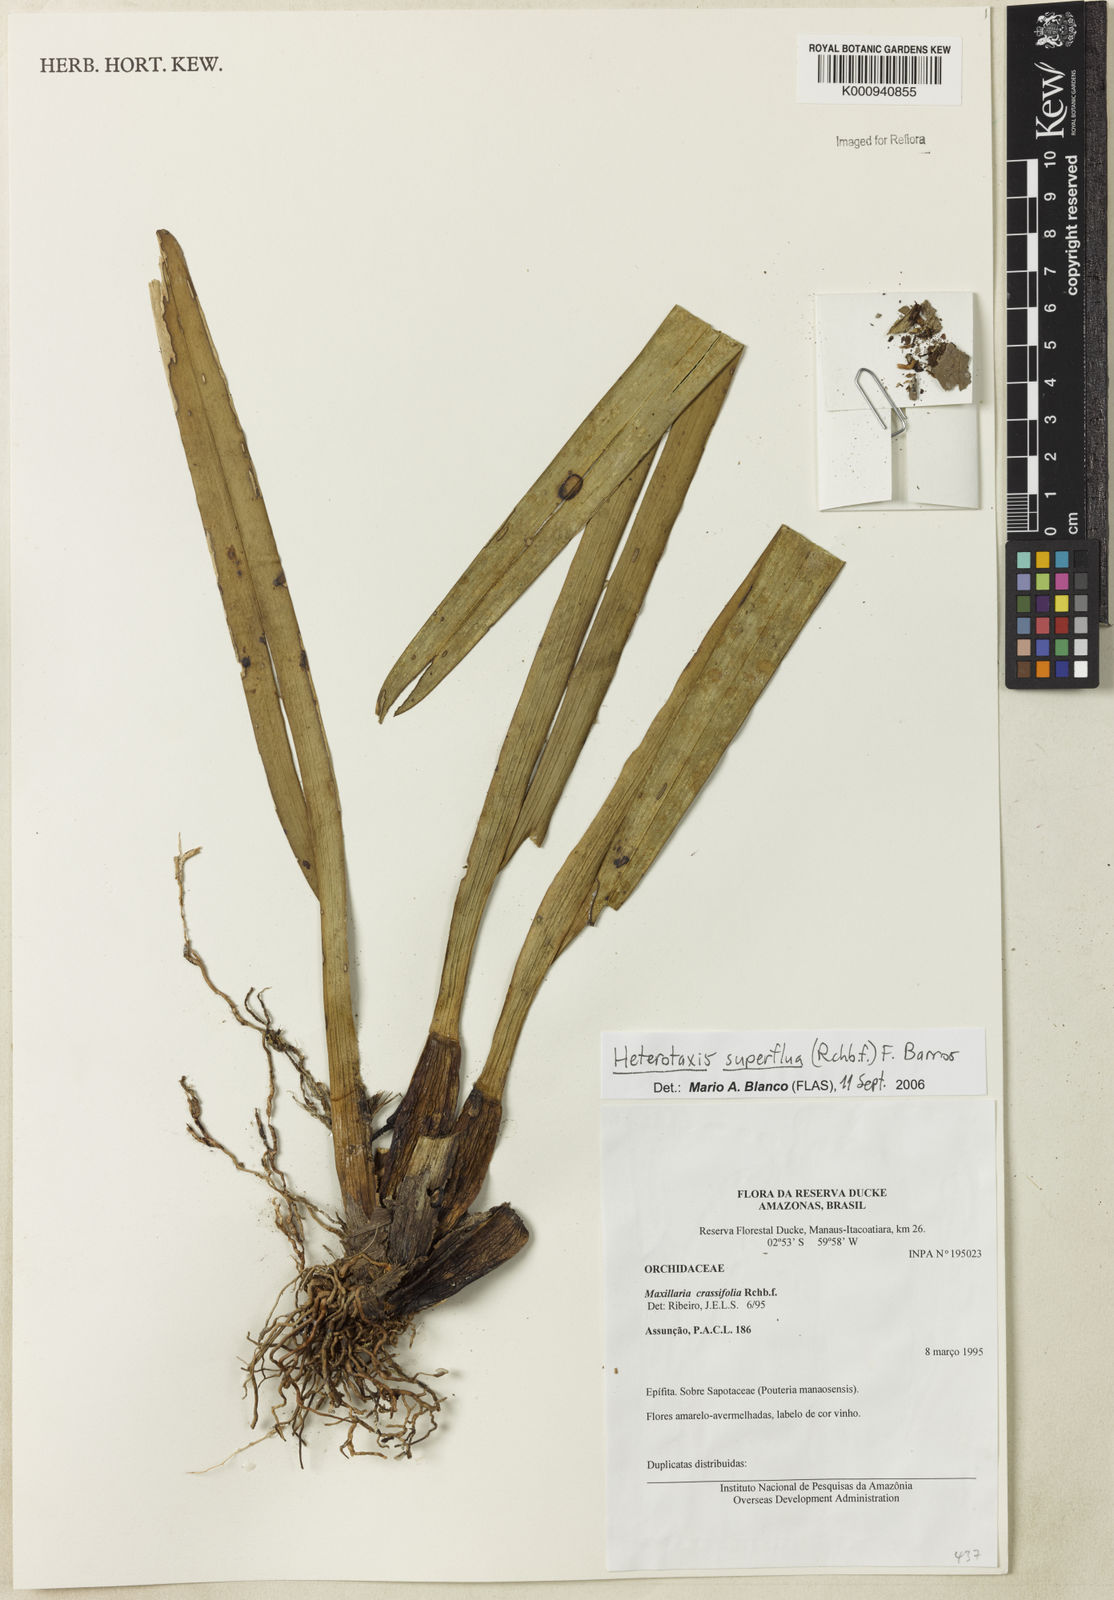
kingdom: Plantae
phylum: Tracheophyta
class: Liliopsida
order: Asparagales
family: Orchidaceae
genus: Maxillaria
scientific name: Maxillaria superflua
